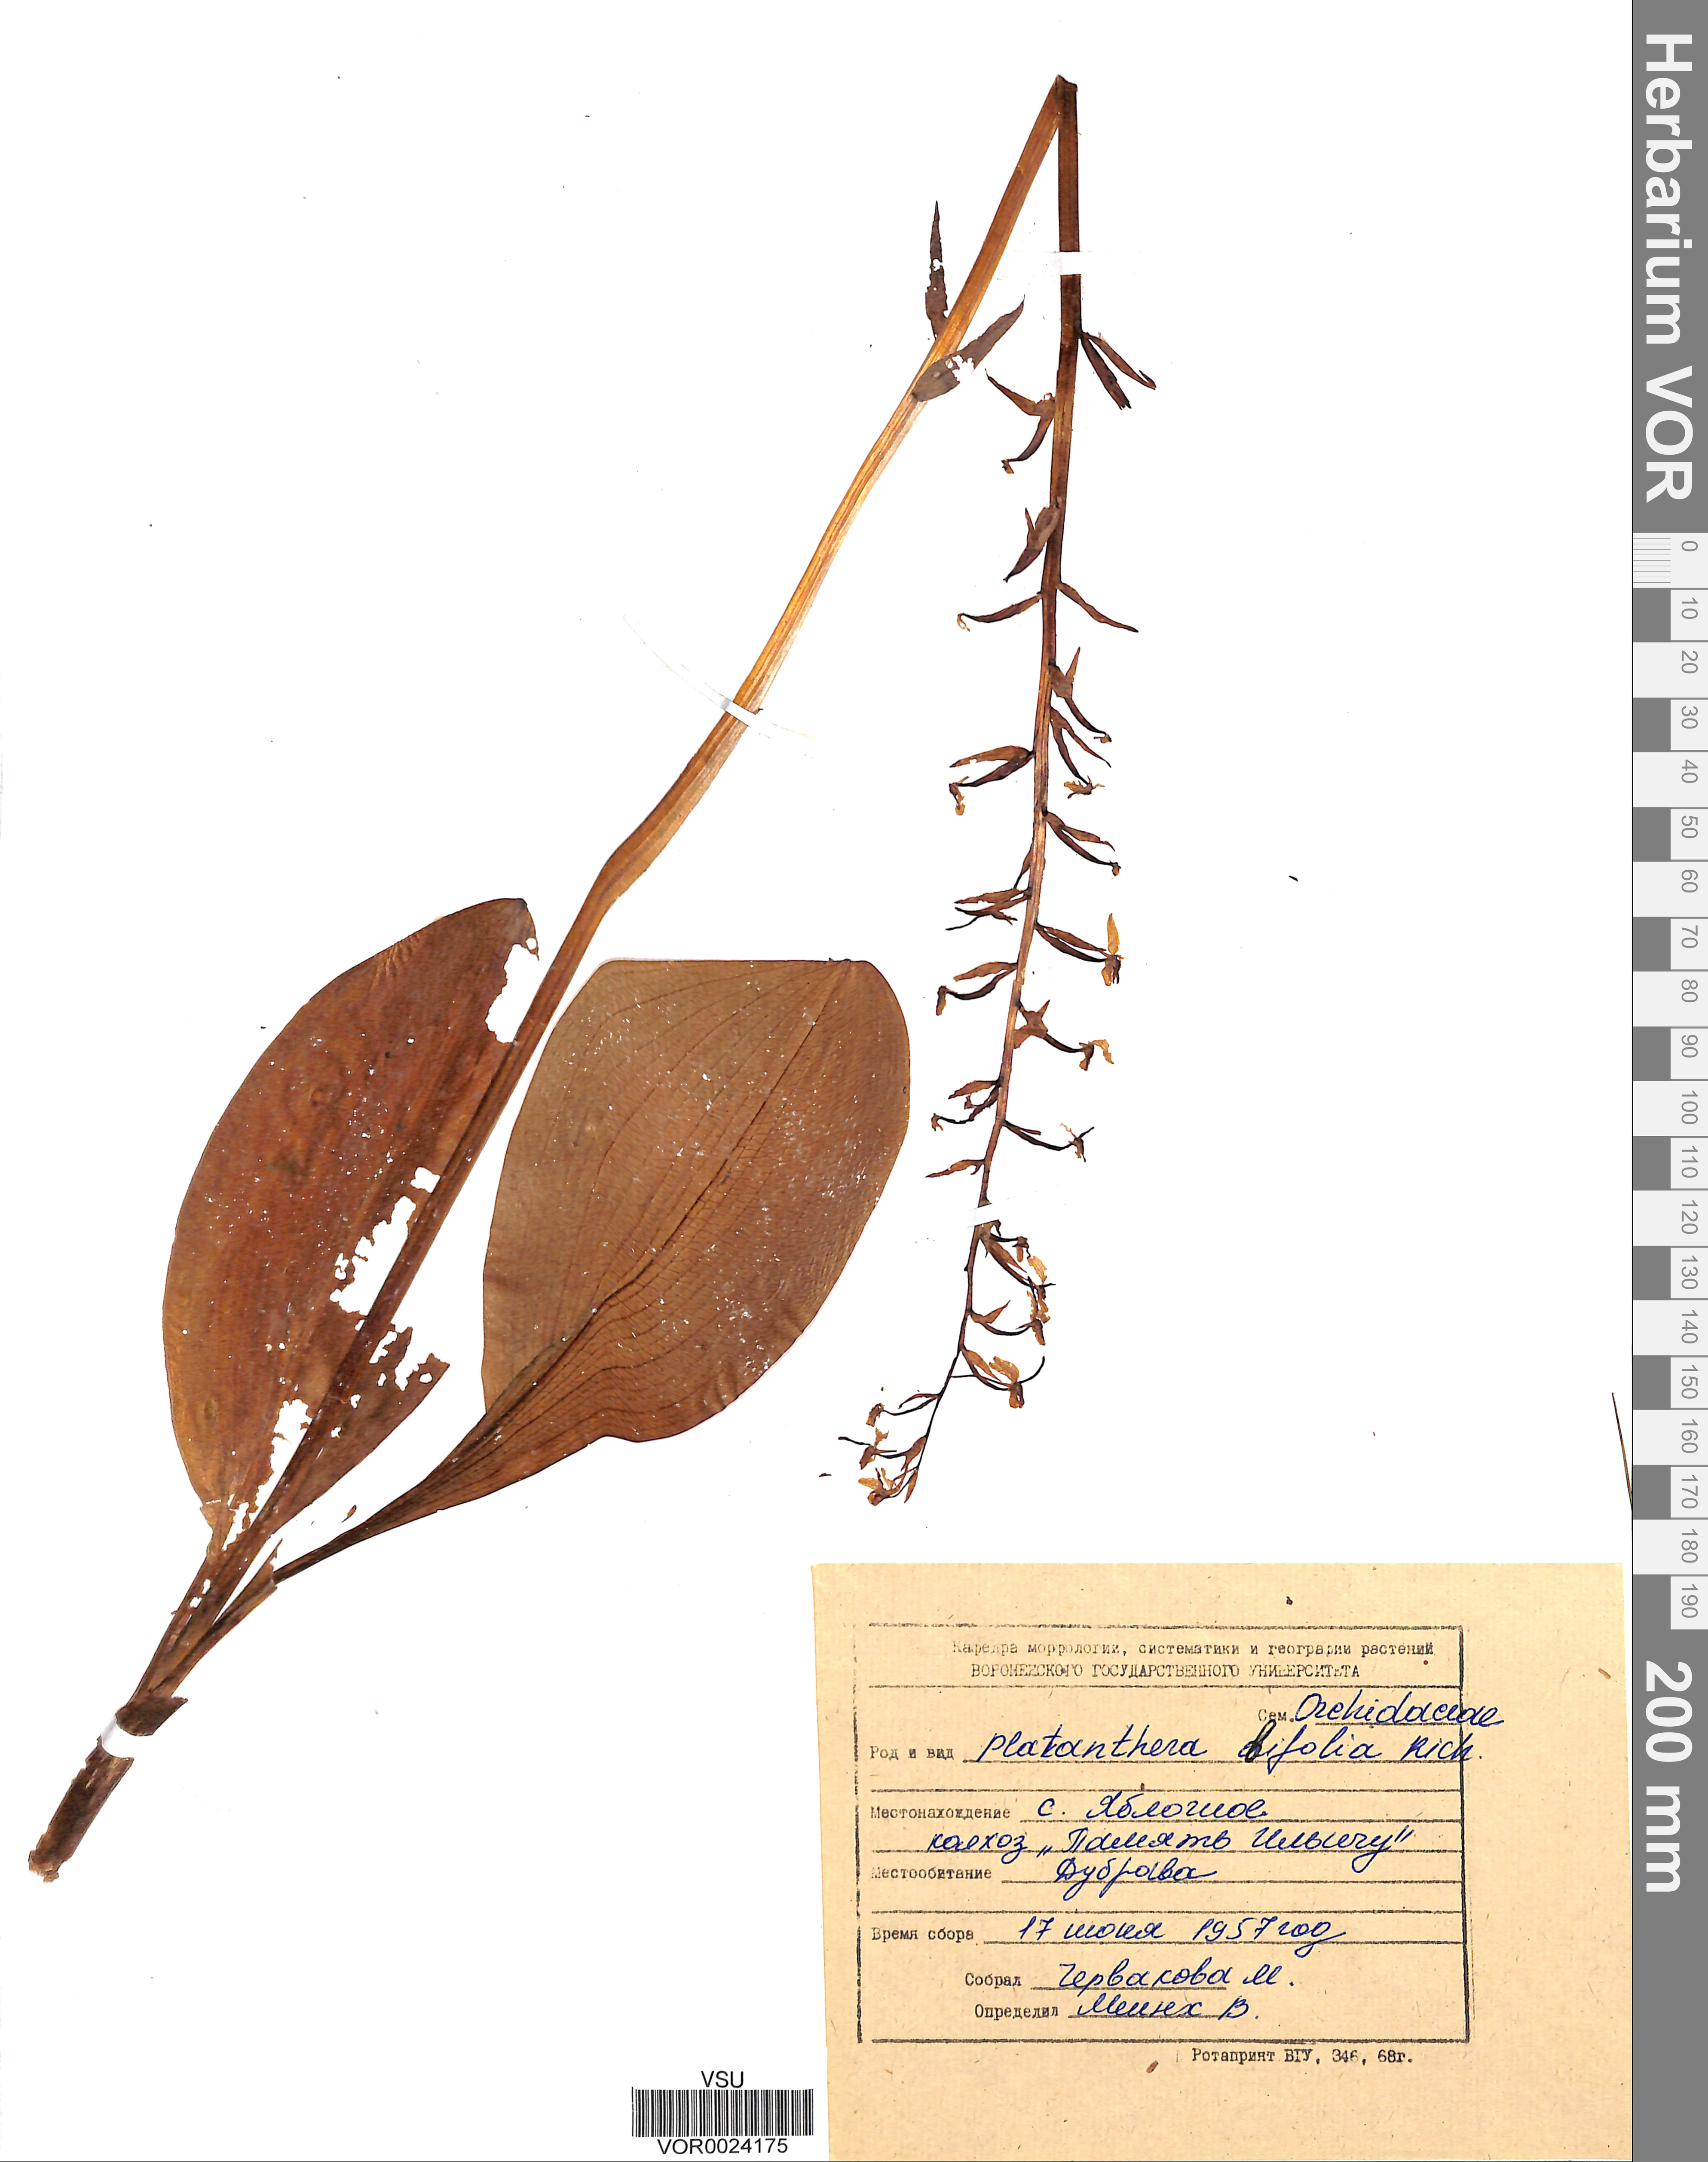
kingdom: Plantae
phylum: Tracheophyta
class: Liliopsida
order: Asparagales
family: Orchidaceae
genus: Platanthera
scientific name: Platanthera bifolia
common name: Lesser butterfly-orchid
